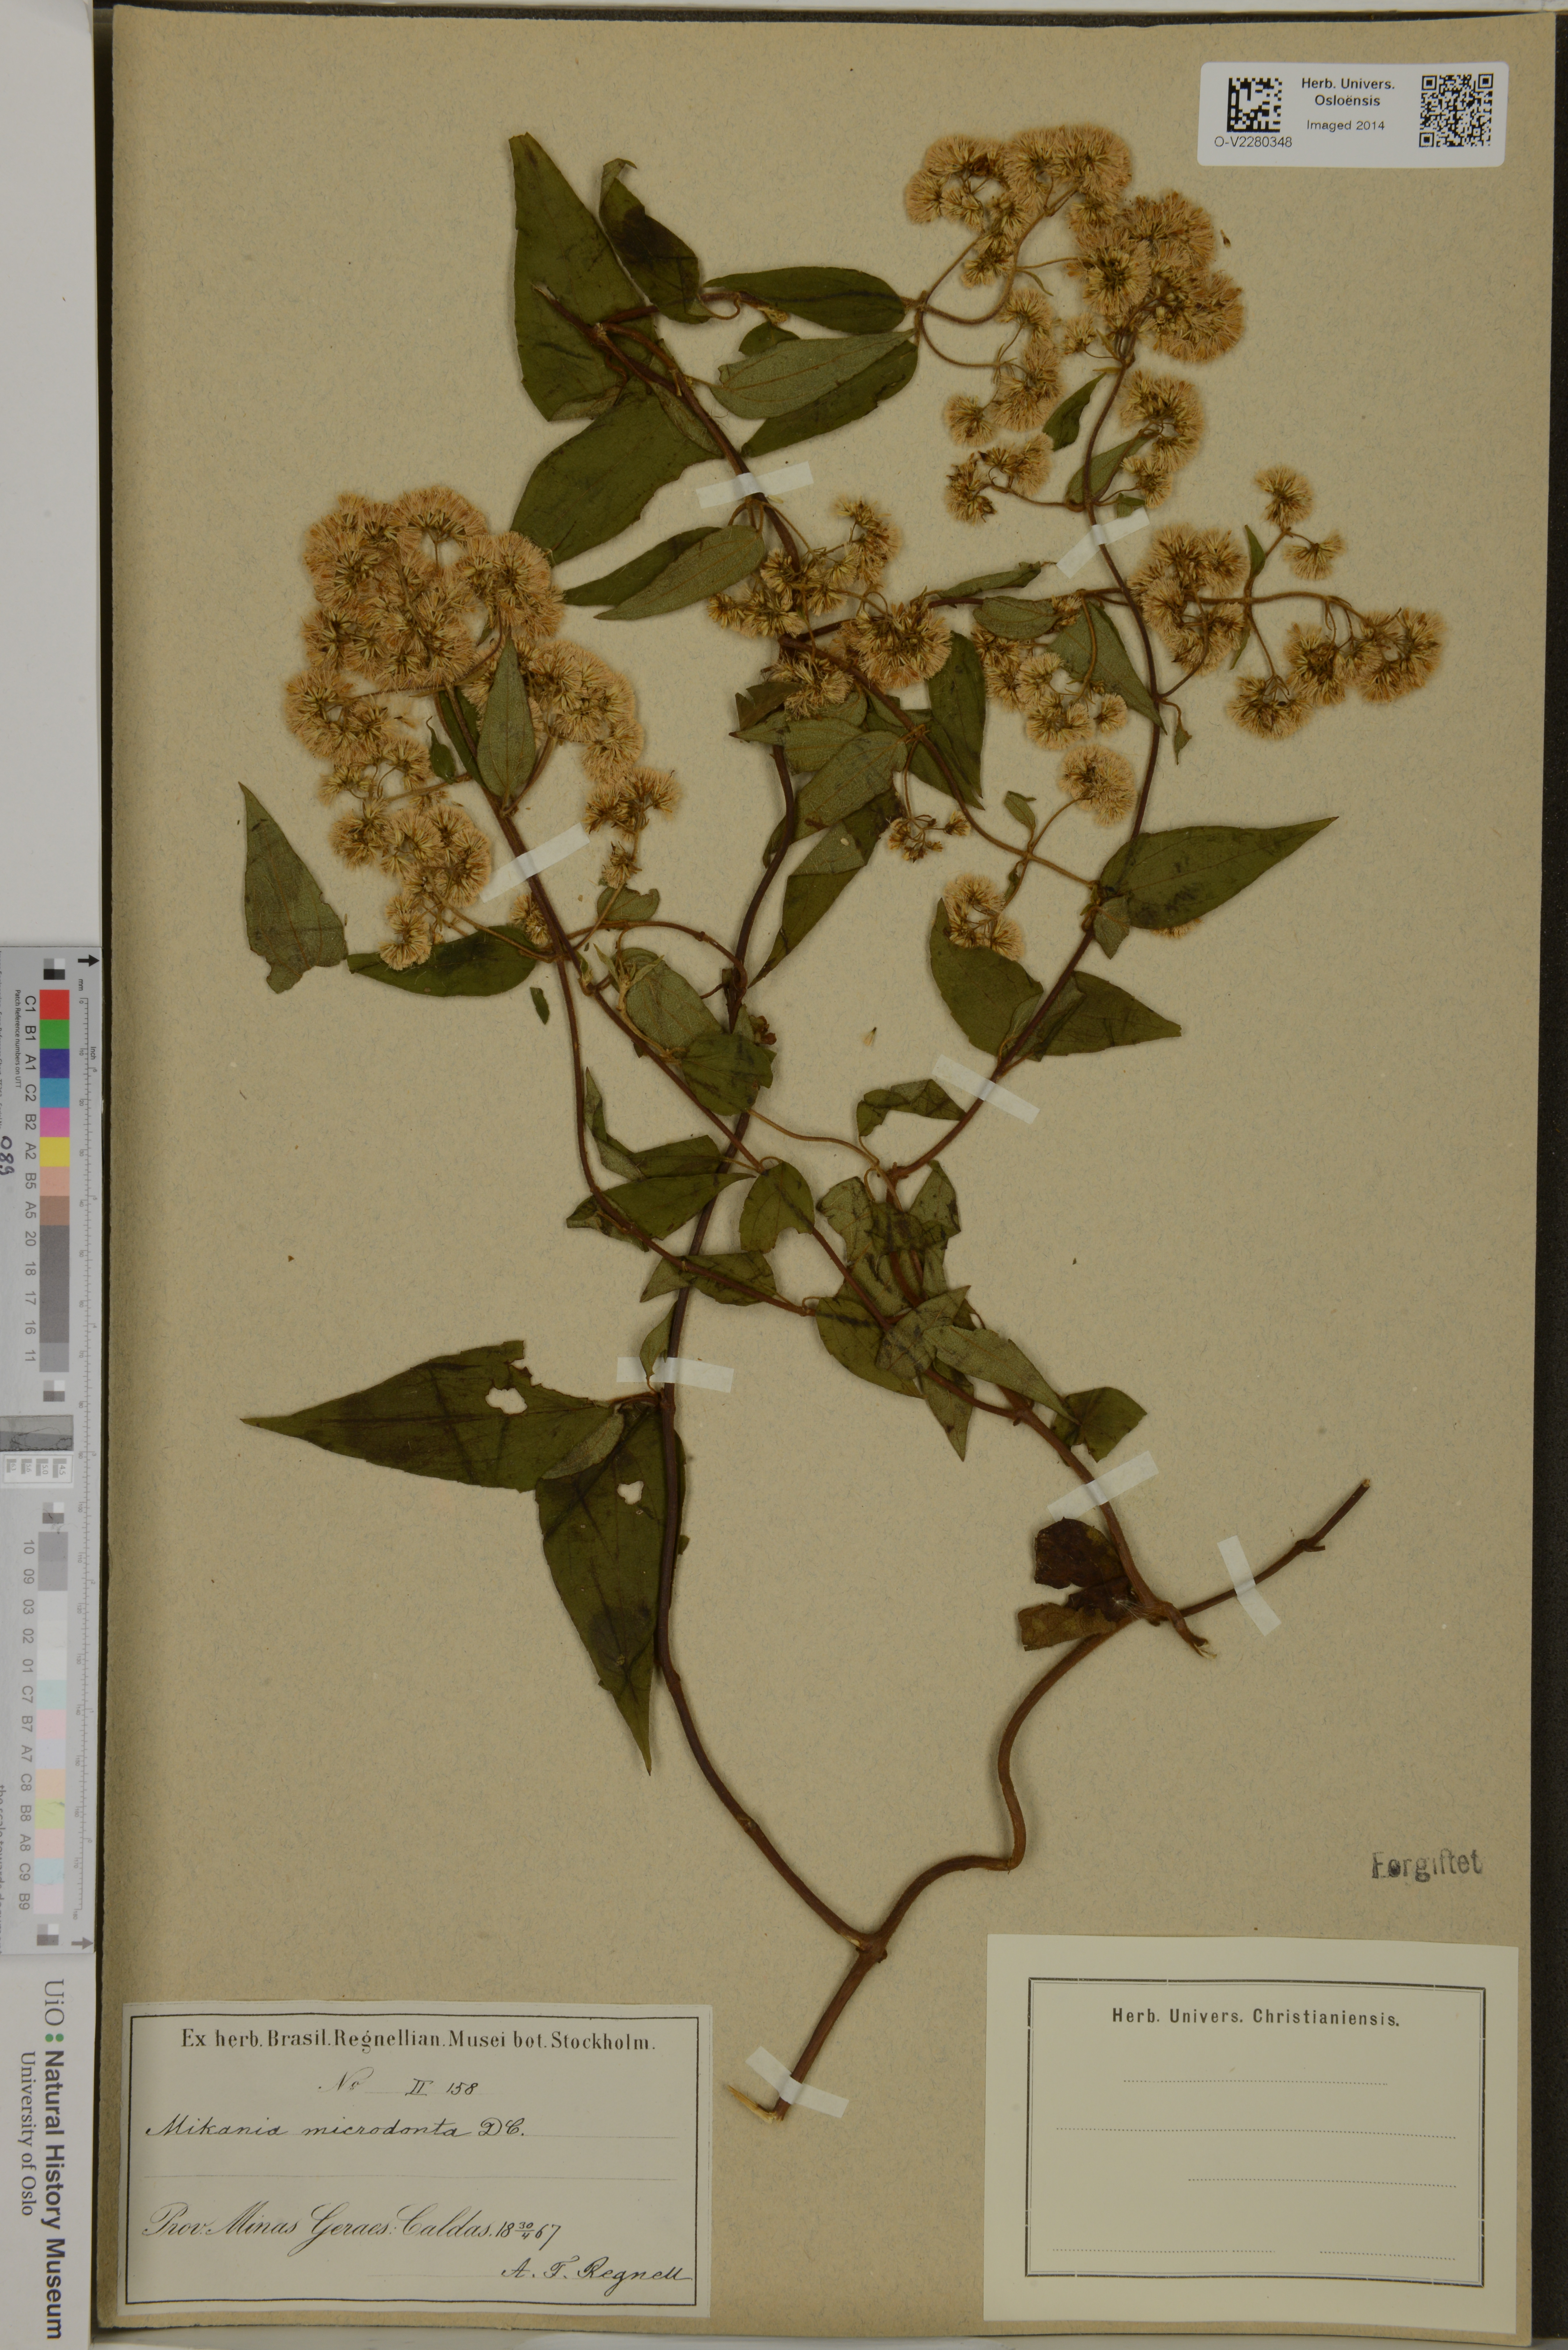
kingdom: Plantae
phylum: Tracheophyta
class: Magnoliopsida
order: Asterales
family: Asteraceae
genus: Mikania
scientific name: Mikania microdonta
